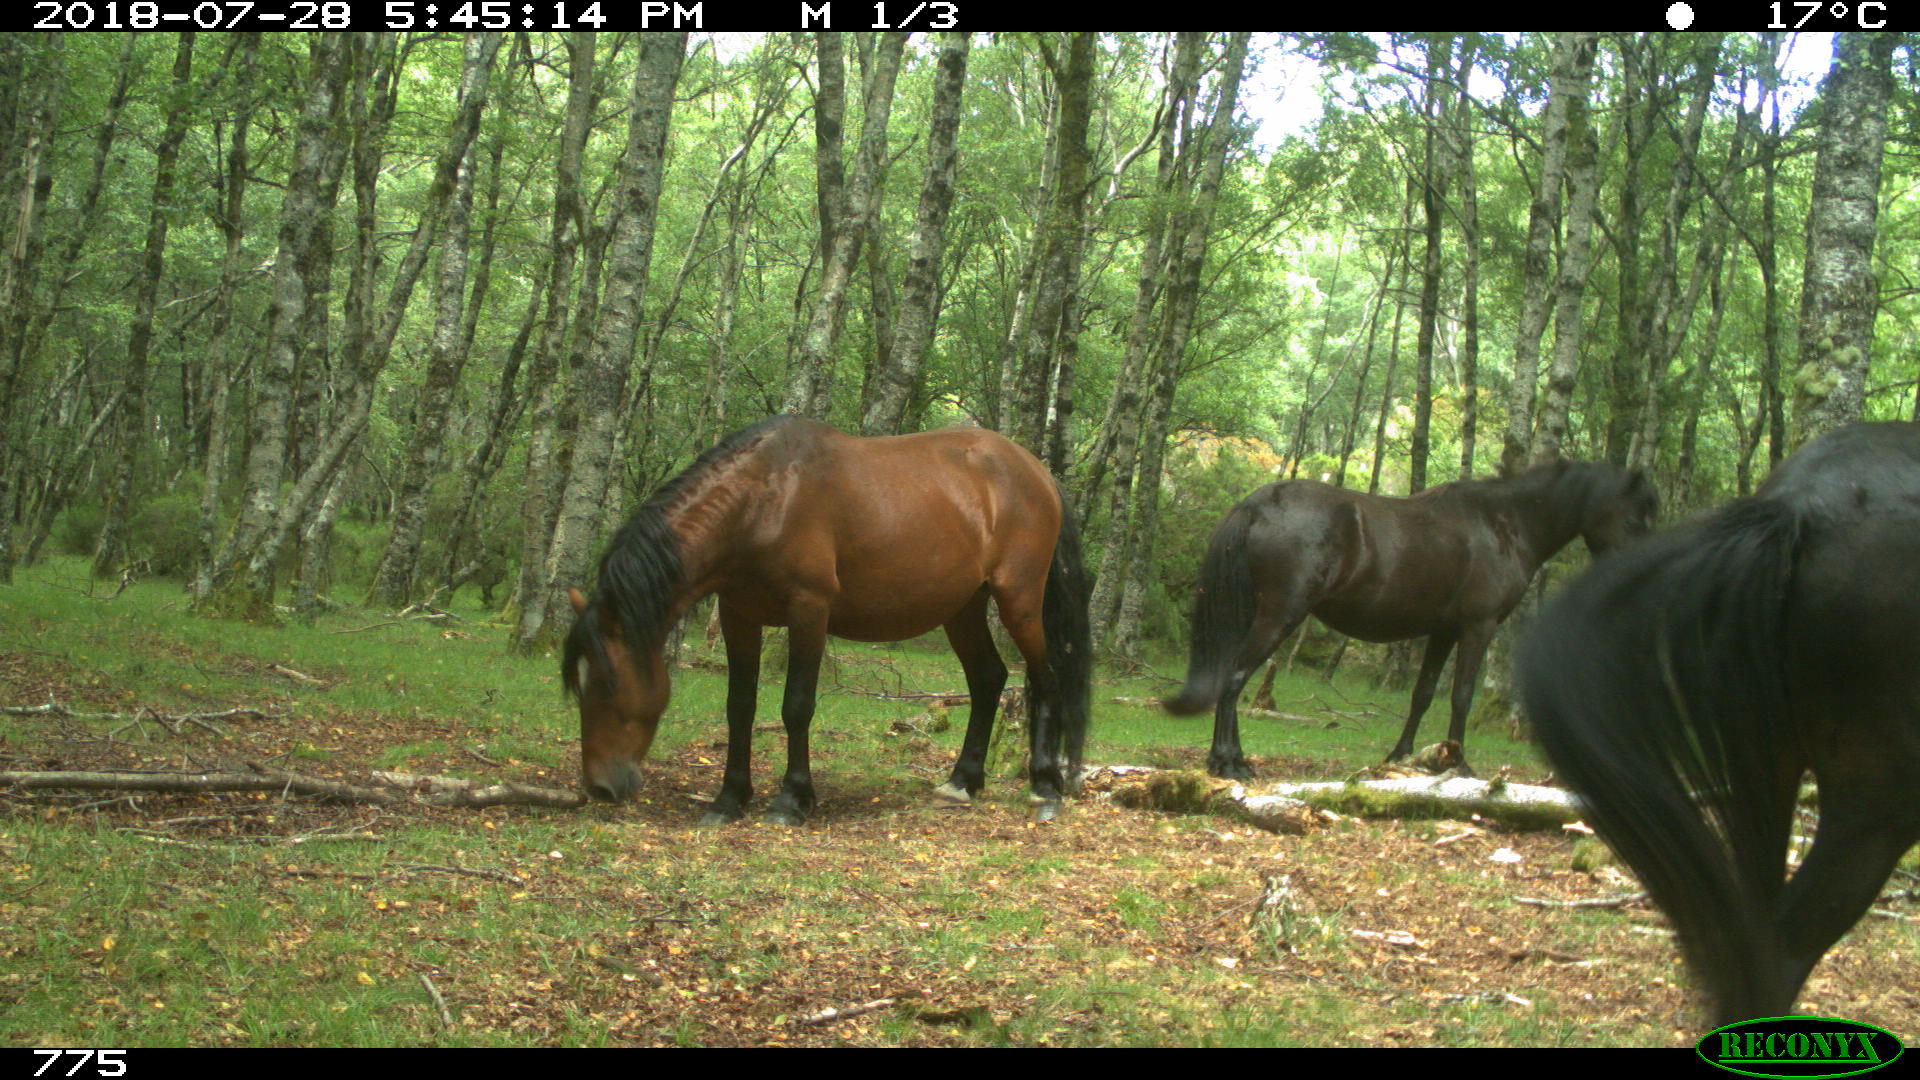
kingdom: Animalia
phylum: Chordata
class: Mammalia
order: Perissodactyla
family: Equidae
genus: Equus
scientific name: Equus caballus
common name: Horse
